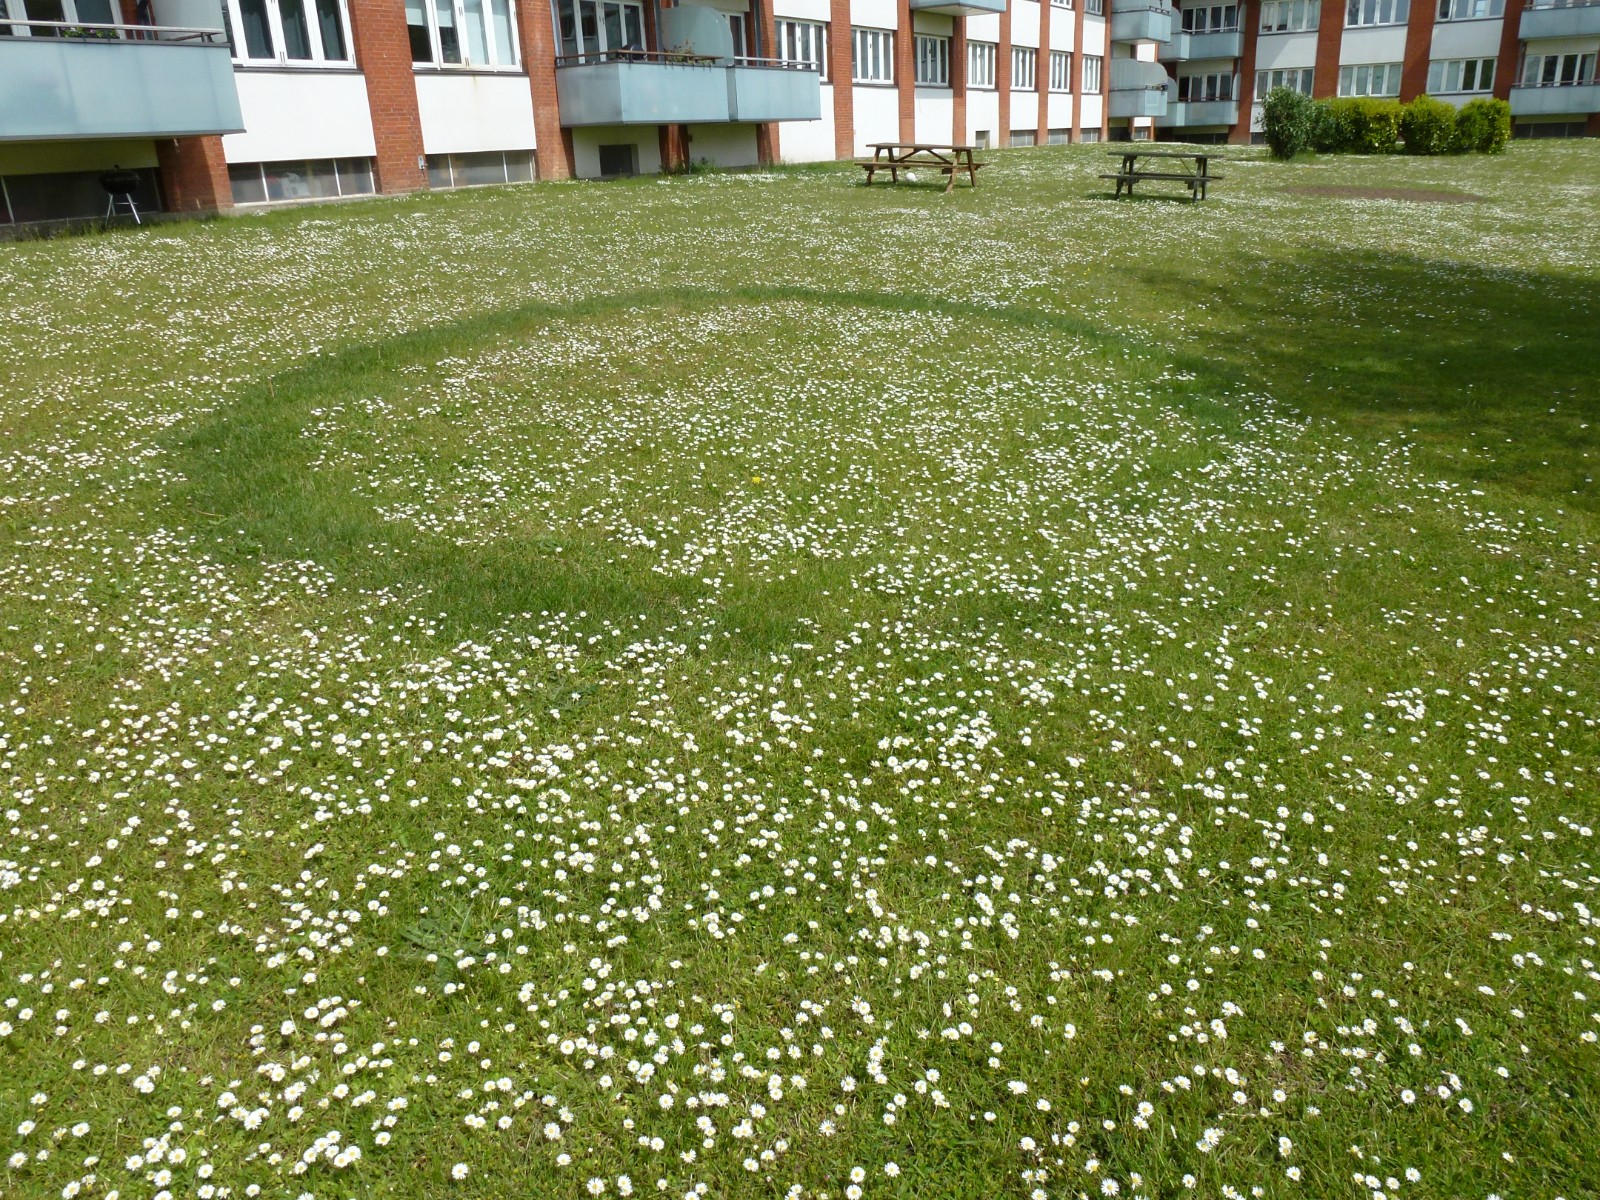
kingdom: Fungi
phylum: Basidiomycota
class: Agaricomycetes
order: Agaricales
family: Lyophyllaceae
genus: Calocybe
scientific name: Calocybe gambosa
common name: vårmusseron
